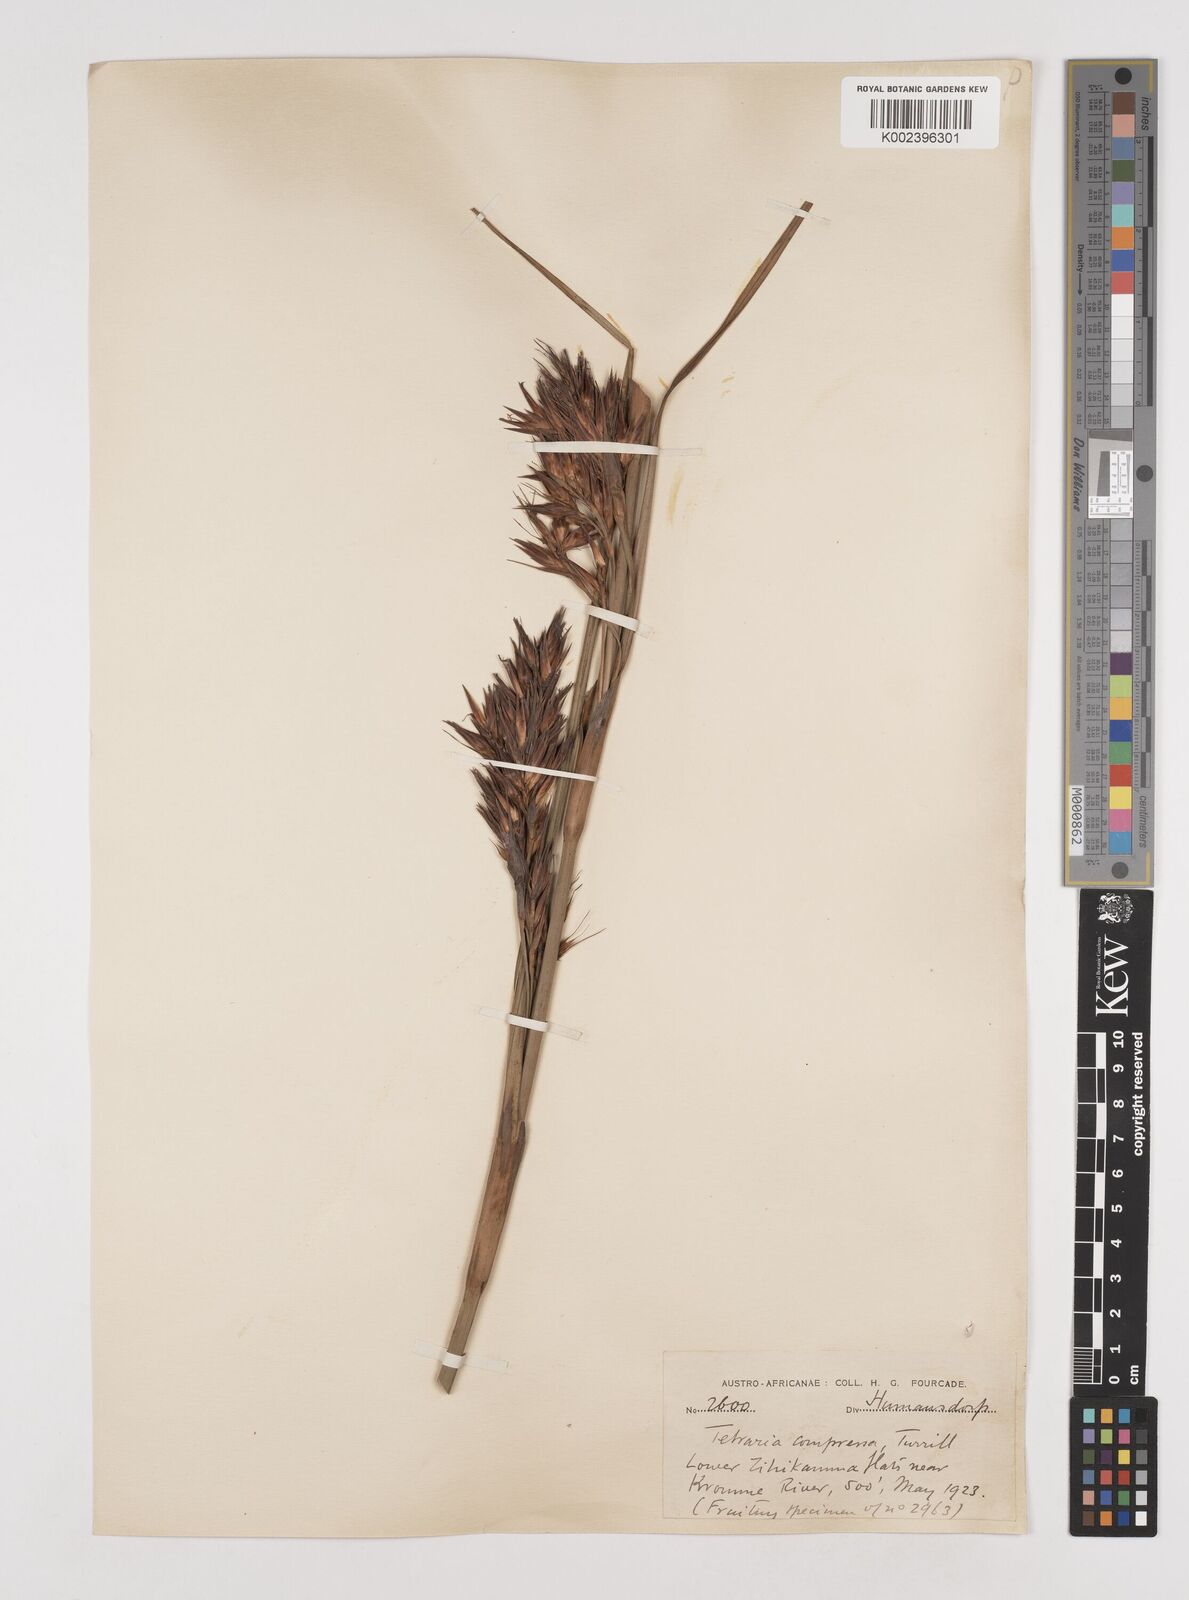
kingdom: Plantae
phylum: Tracheophyta
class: Liliopsida
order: Poales
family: Cyperaceae
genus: Tetraria
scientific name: Tetraria compressa
